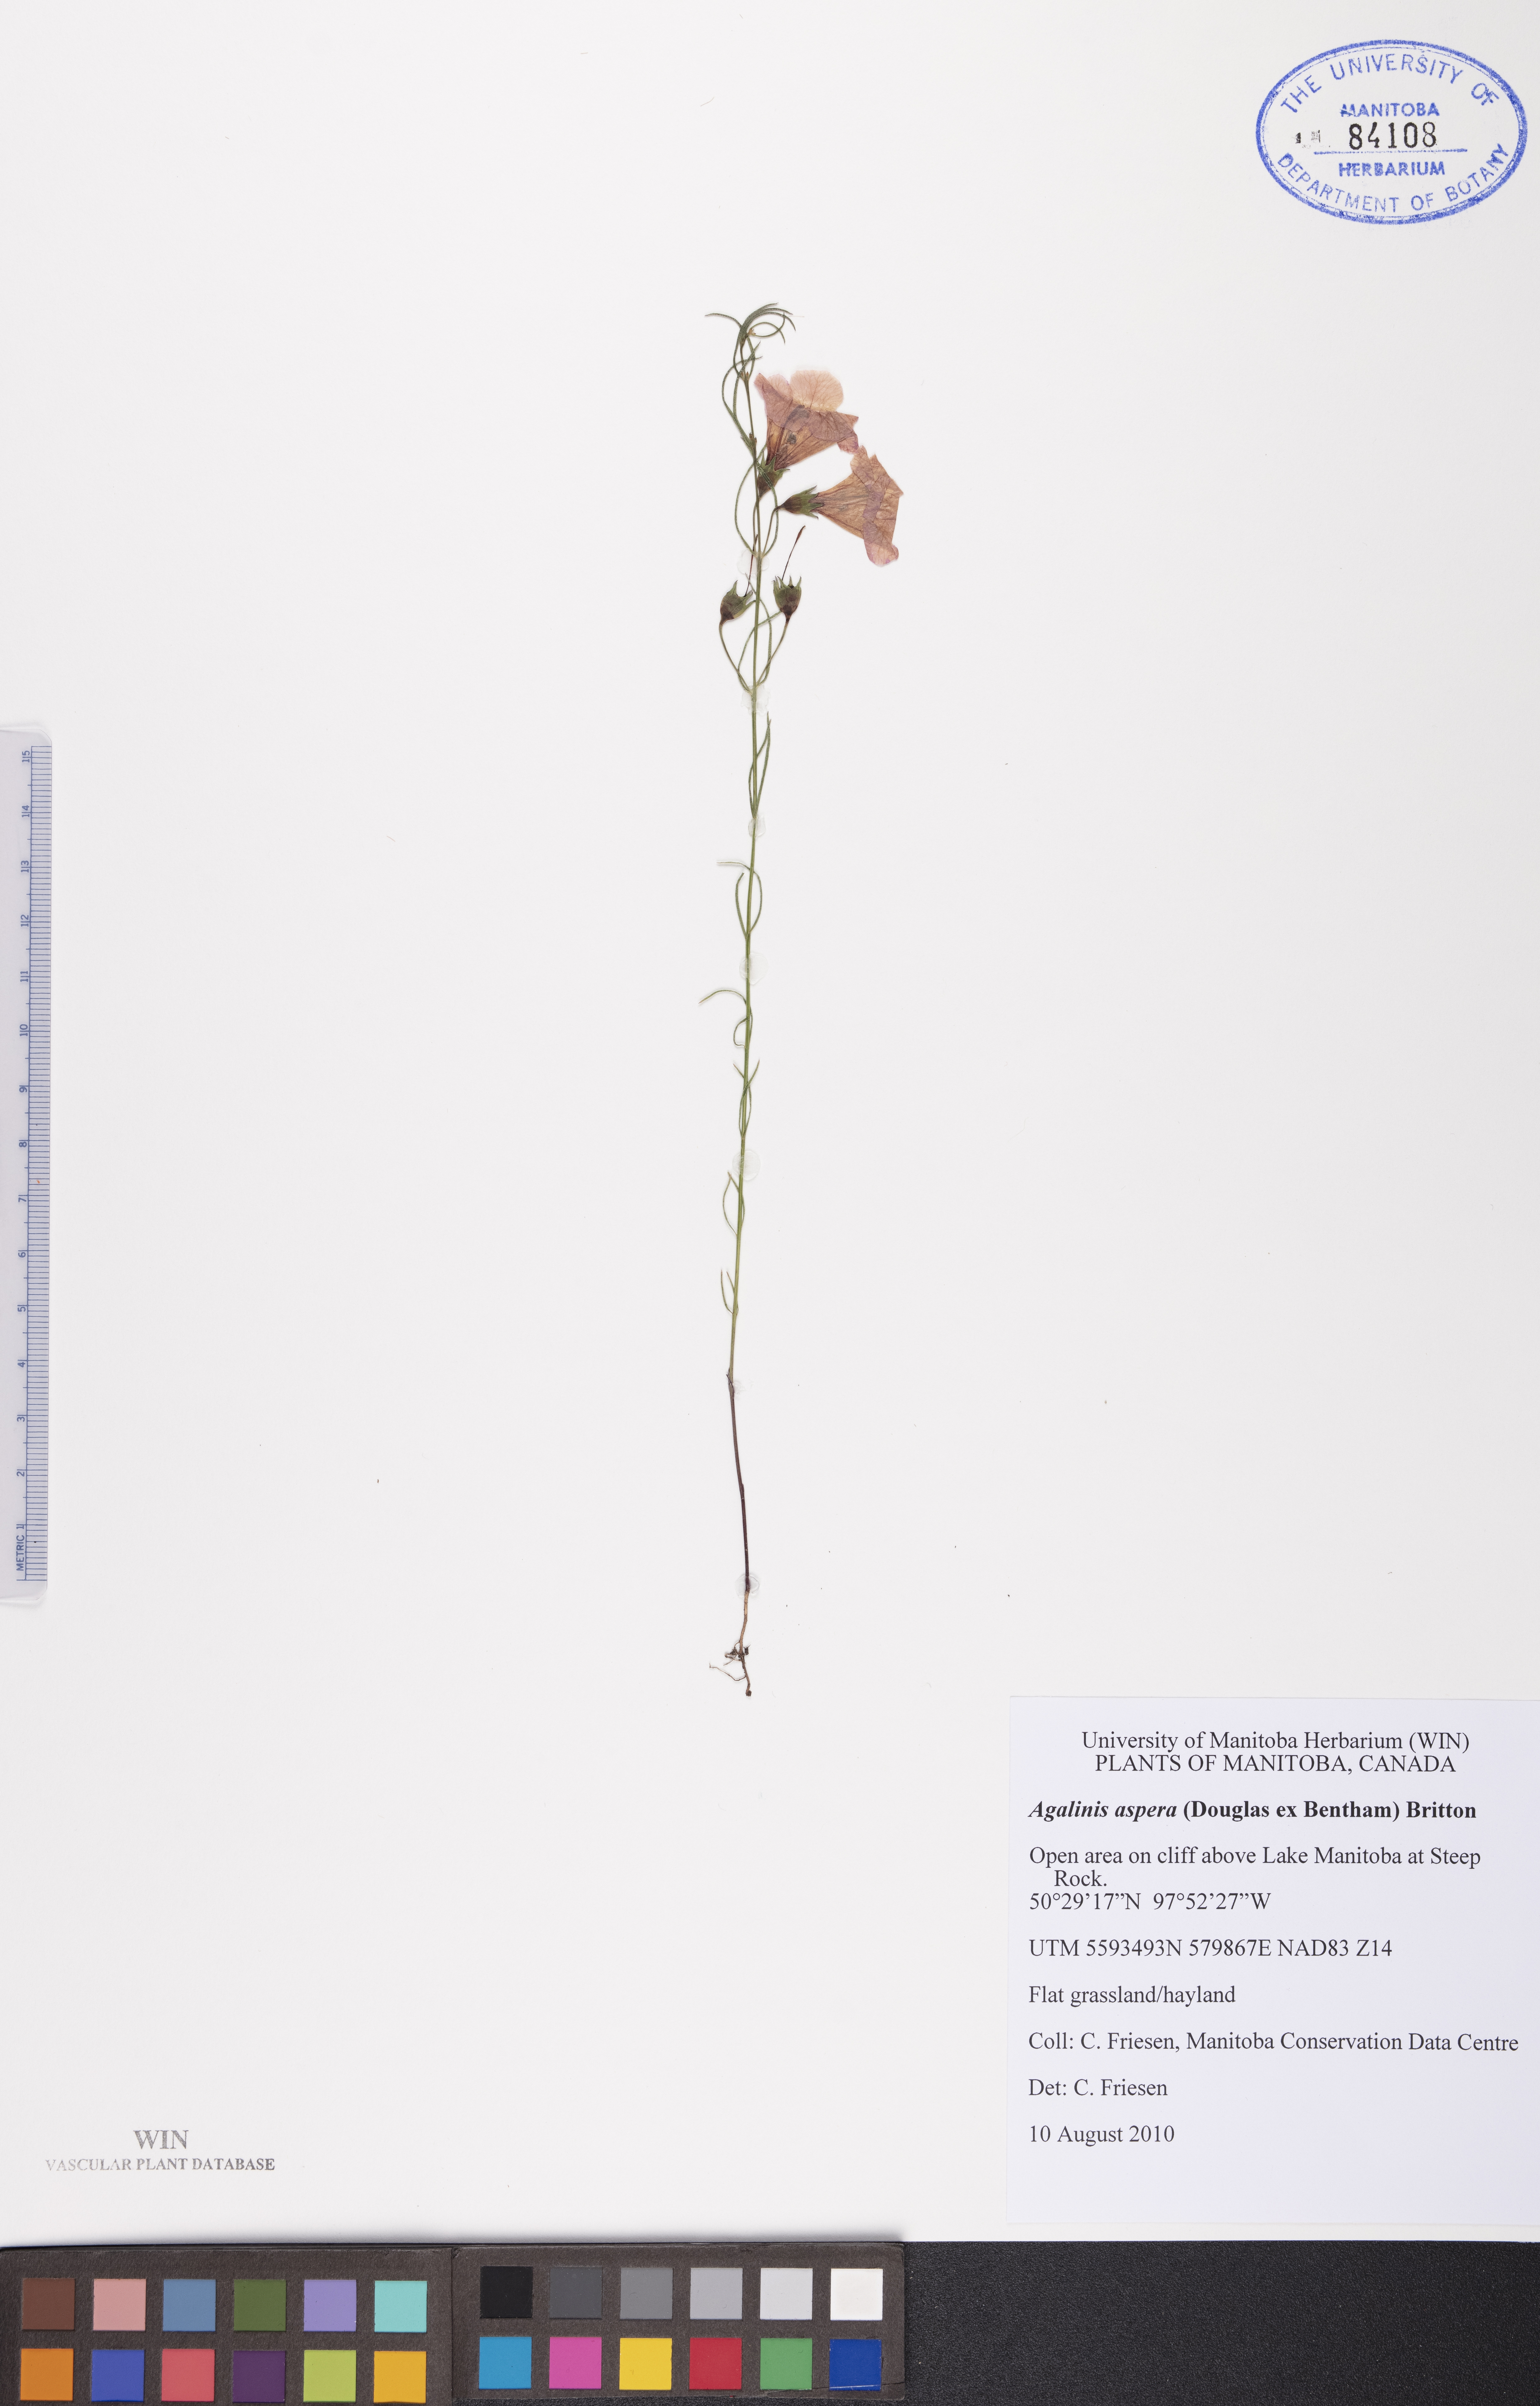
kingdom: Plantae
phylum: Tracheophyta
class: Magnoliopsida
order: Lamiales
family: Orobanchaceae
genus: Agalinis
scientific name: Agalinis aspera
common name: Rough agalinis
